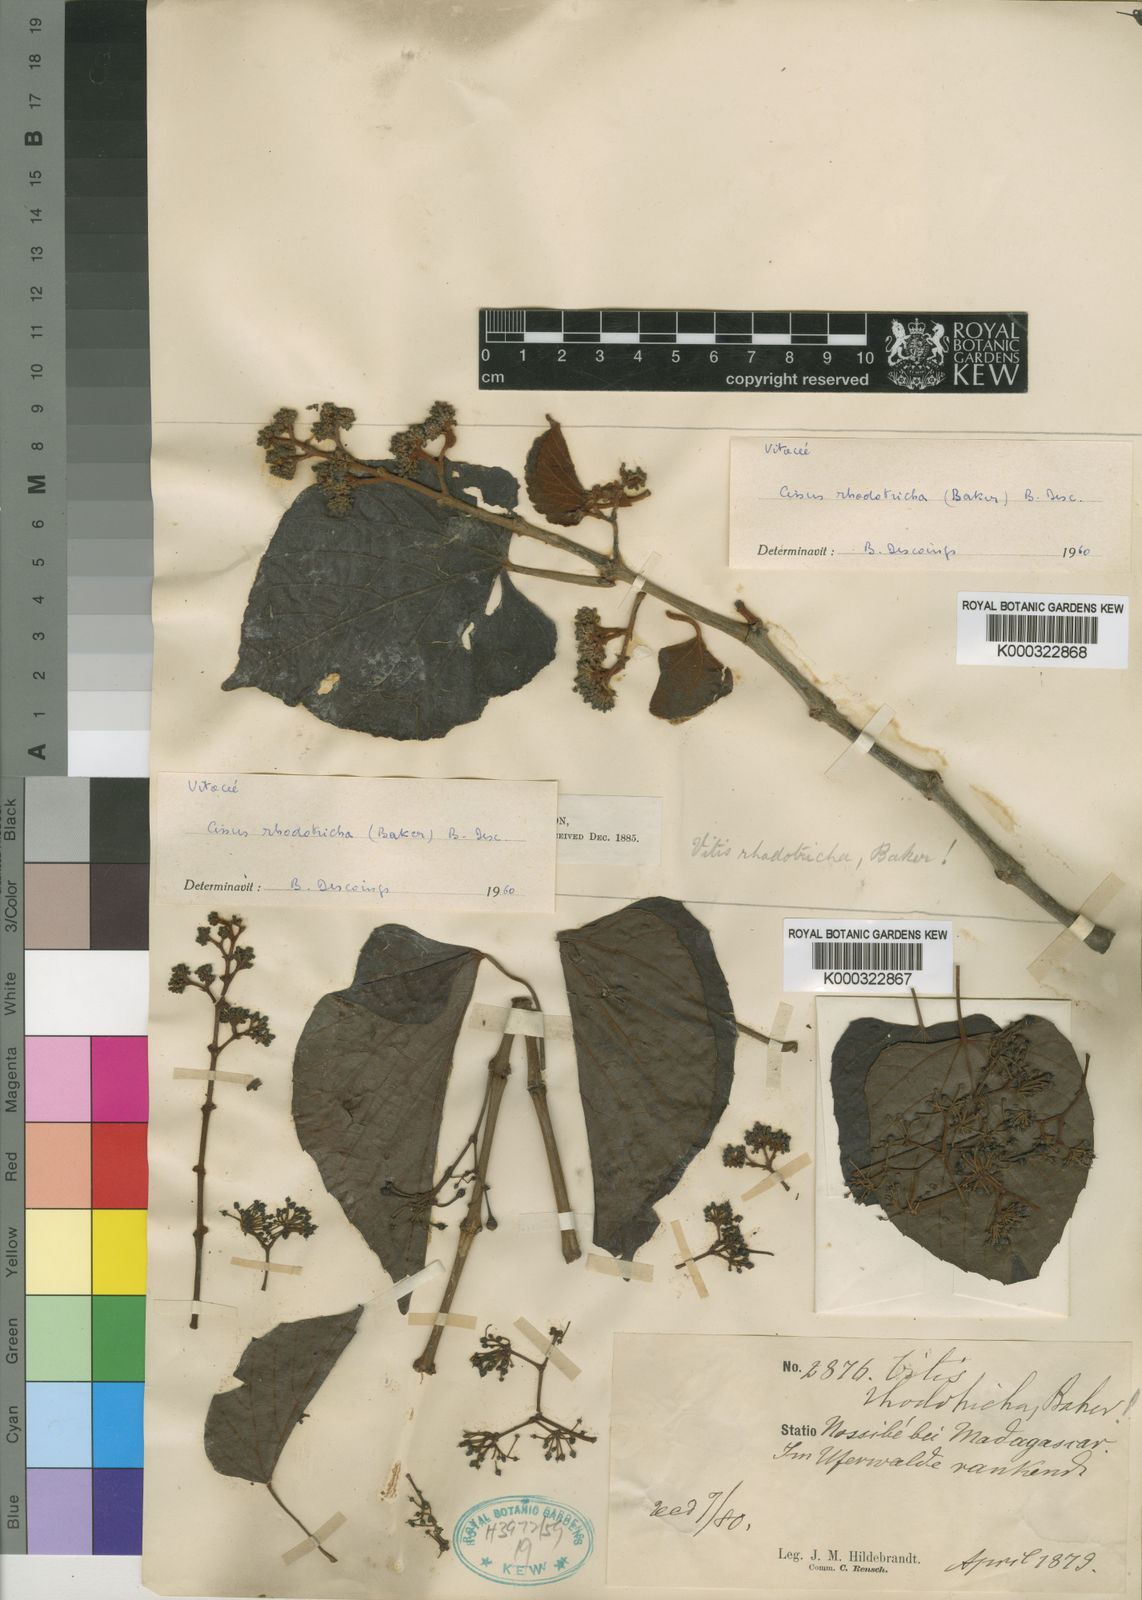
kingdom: Plantae
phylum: Tracheophyta
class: Magnoliopsida
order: Vitales
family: Vitaceae
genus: Cissus
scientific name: Cissus rhodotricha
